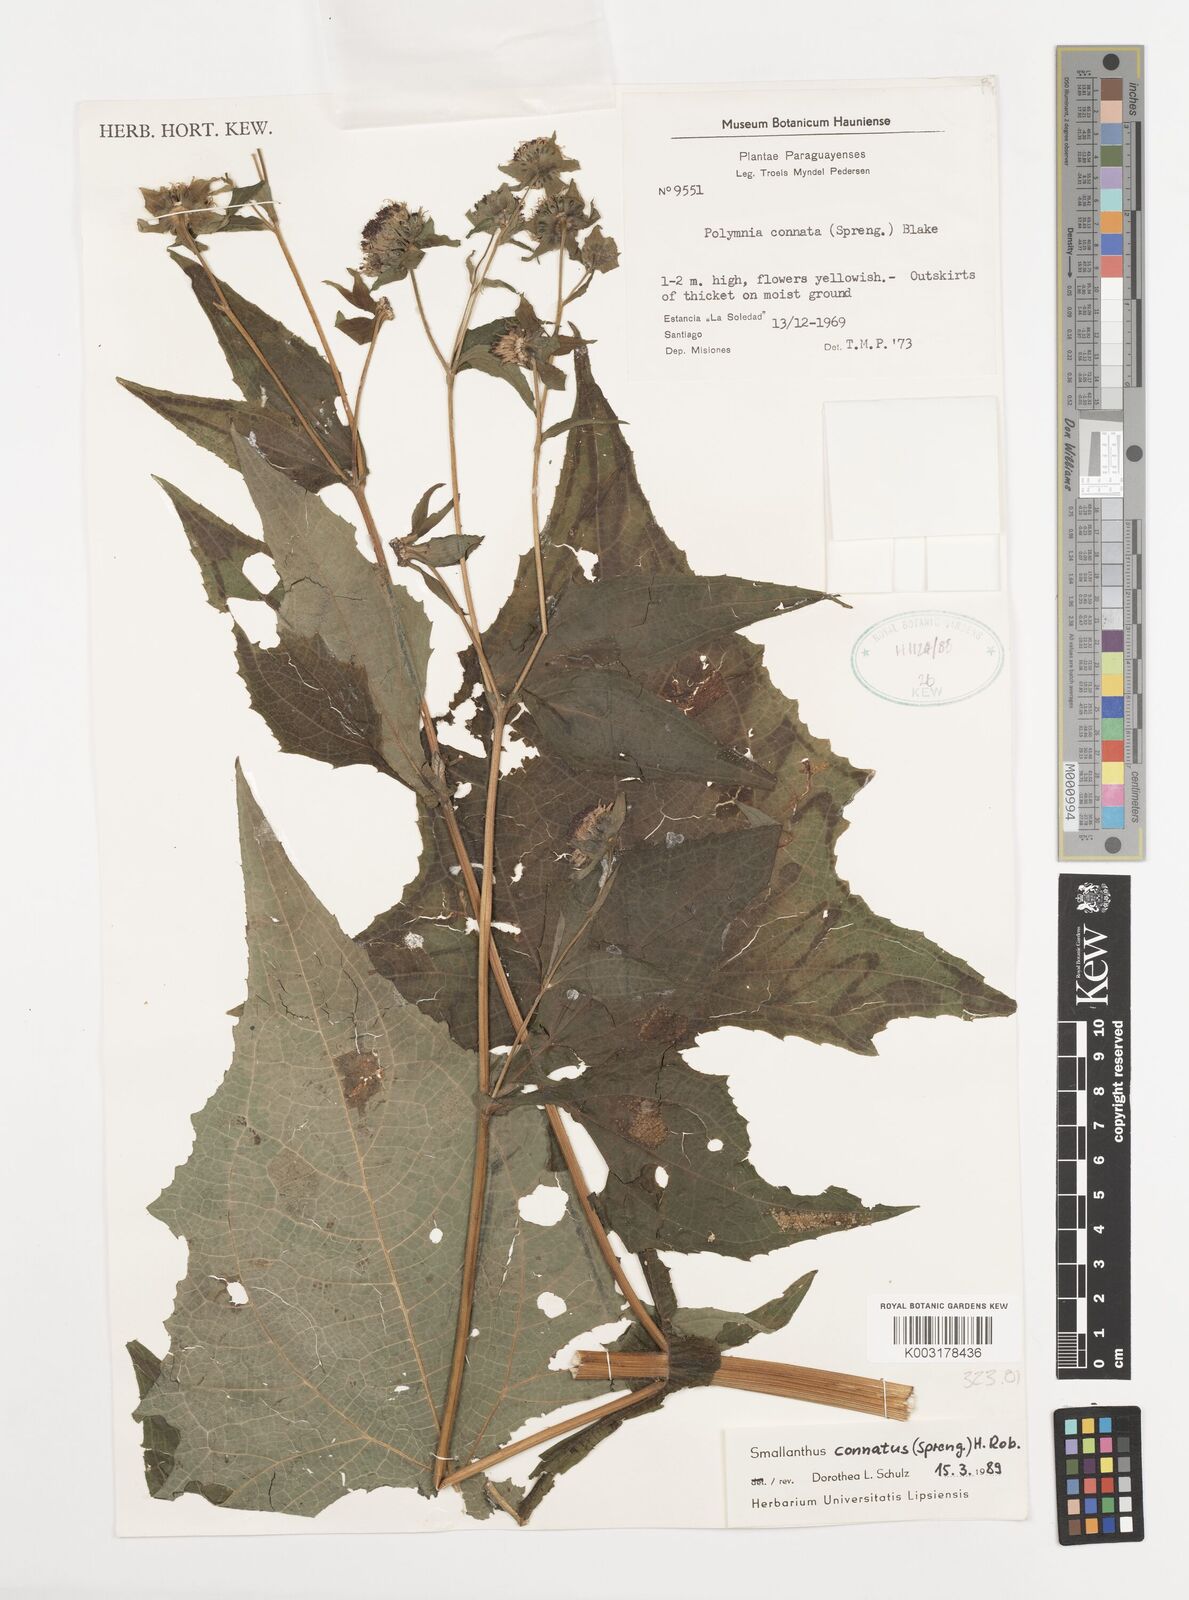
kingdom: Plantae
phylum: Tracheophyta
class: Magnoliopsida
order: Asterales
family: Asteraceae
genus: Smallanthus
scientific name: Smallanthus connatus
